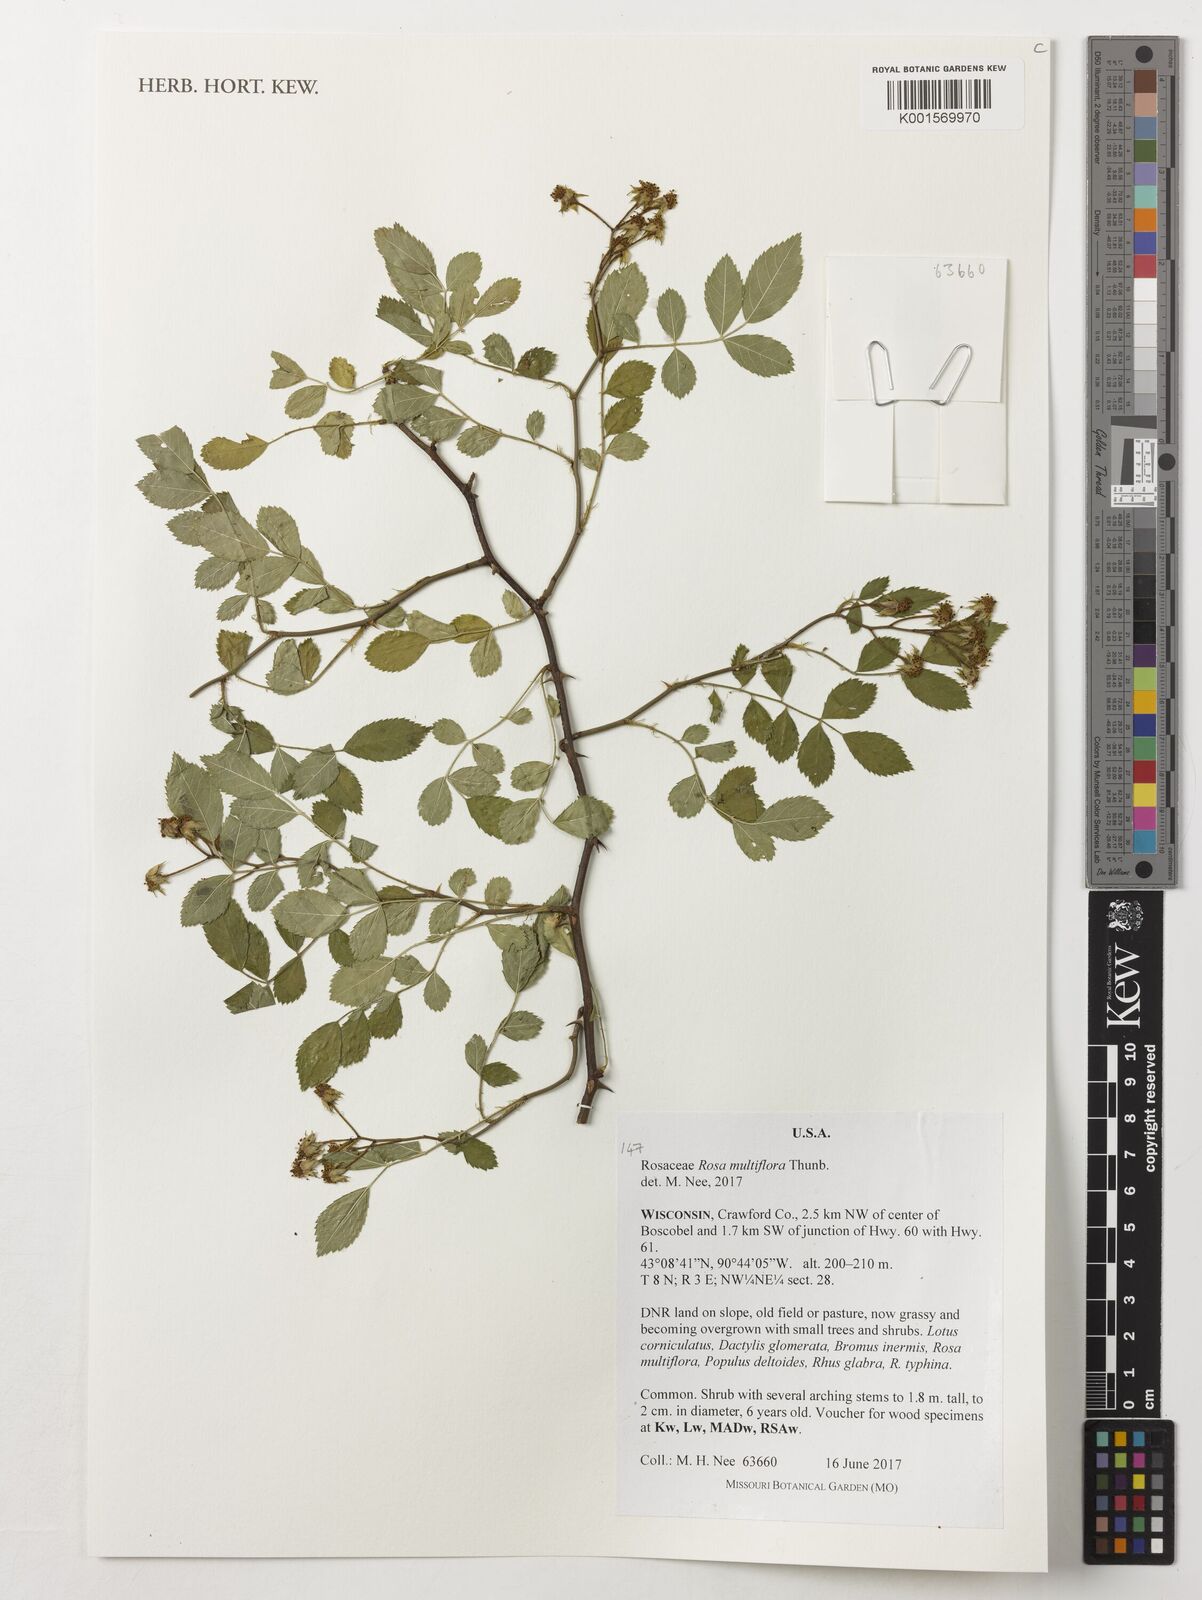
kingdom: Plantae
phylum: Tracheophyta
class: Magnoliopsida
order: Rosales
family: Rosaceae
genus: Rosa
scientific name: Rosa multiflora
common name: Multiflora rose
